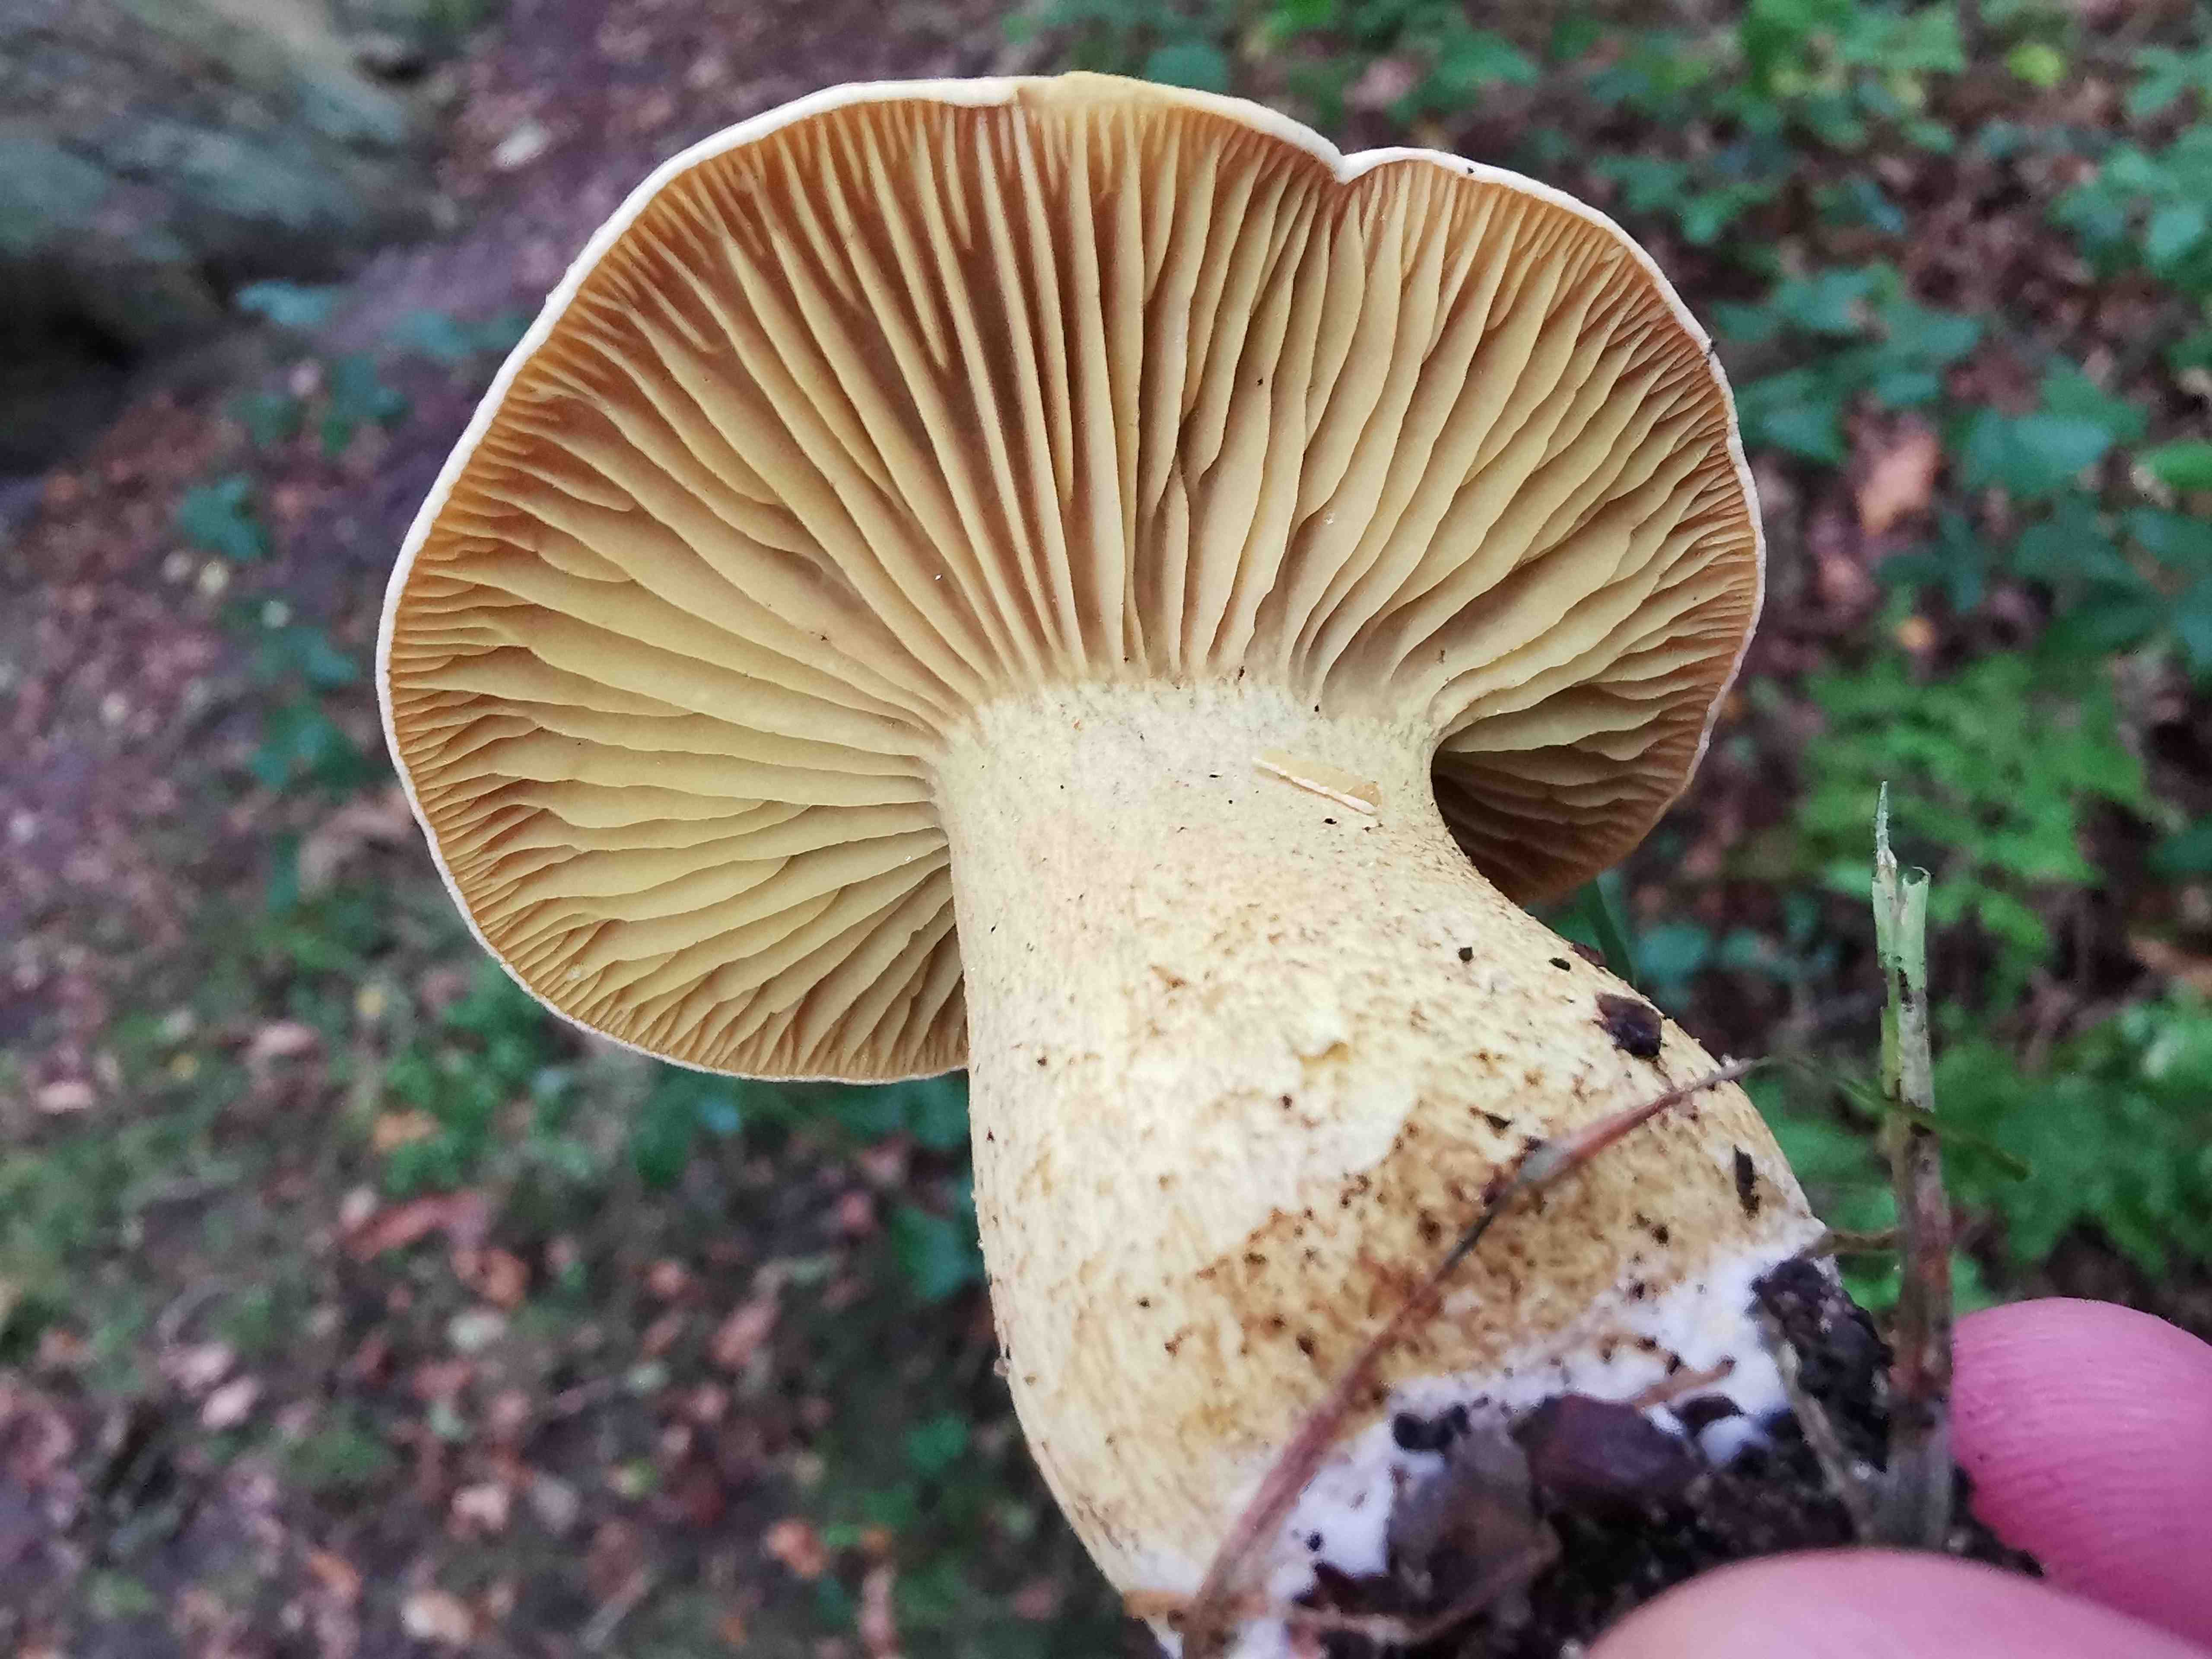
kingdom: Fungi
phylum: Basidiomycota
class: Agaricomycetes
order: Agaricales
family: Tricholomataceae
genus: Tricholoma
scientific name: Tricholoma sulphureum
